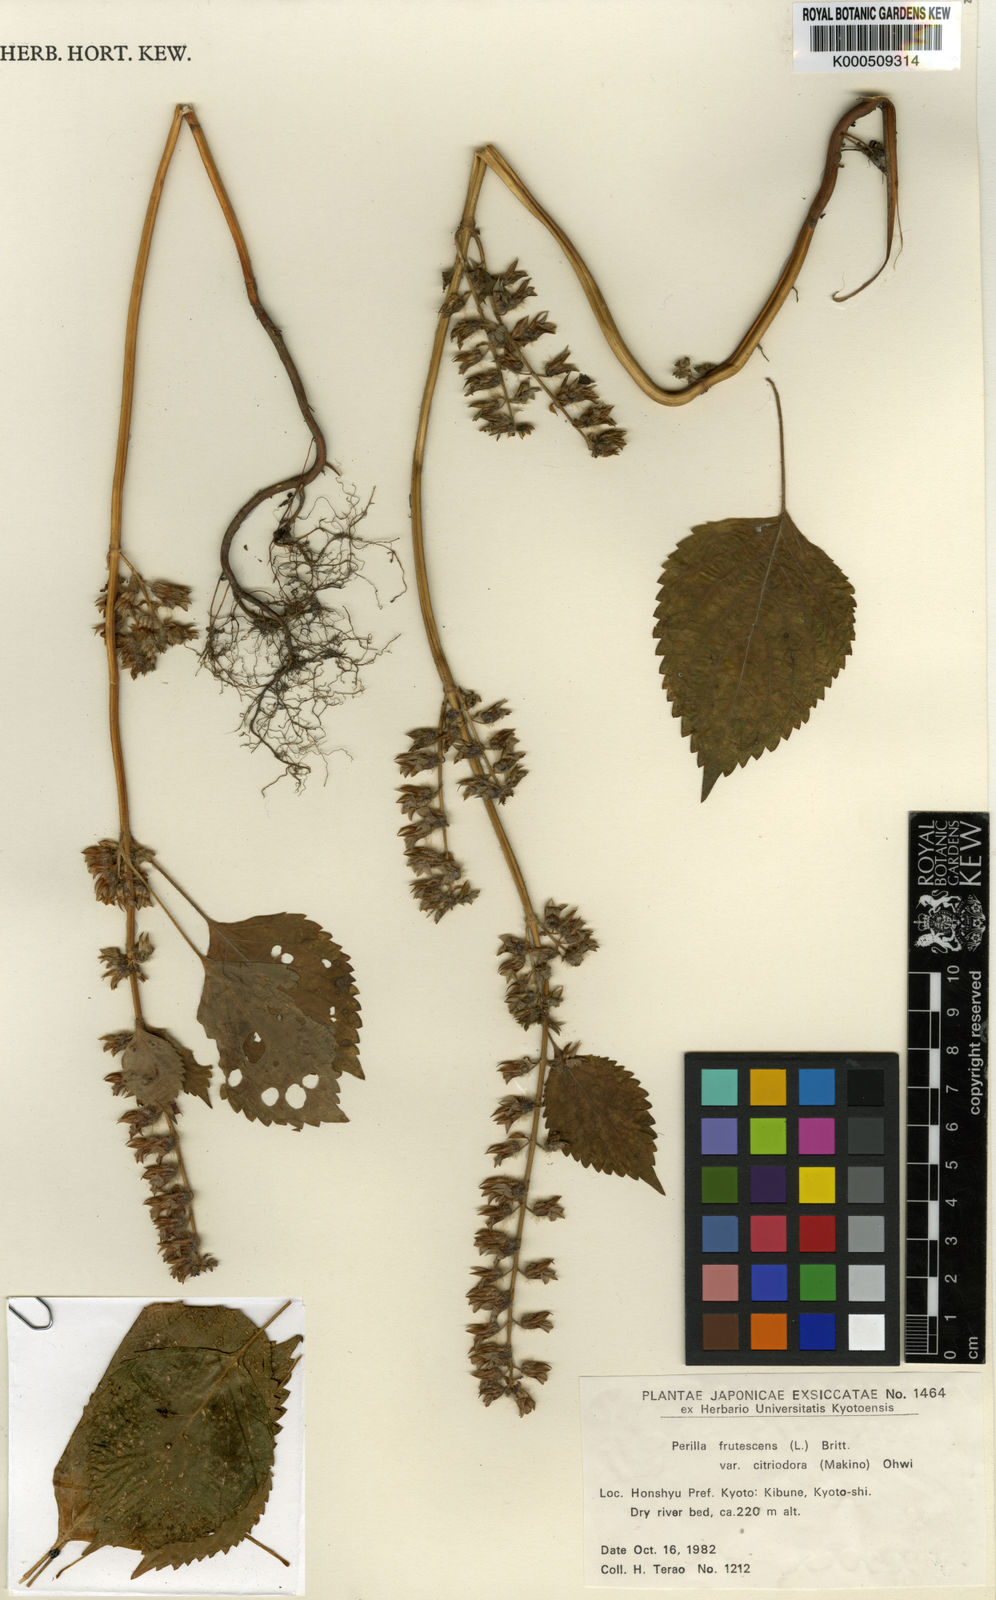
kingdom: Plantae
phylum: Tracheophyta
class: Magnoliopsida
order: Lamiales
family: Lamiaceae
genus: Perilla
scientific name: Perilla frutescens
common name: Perilla
